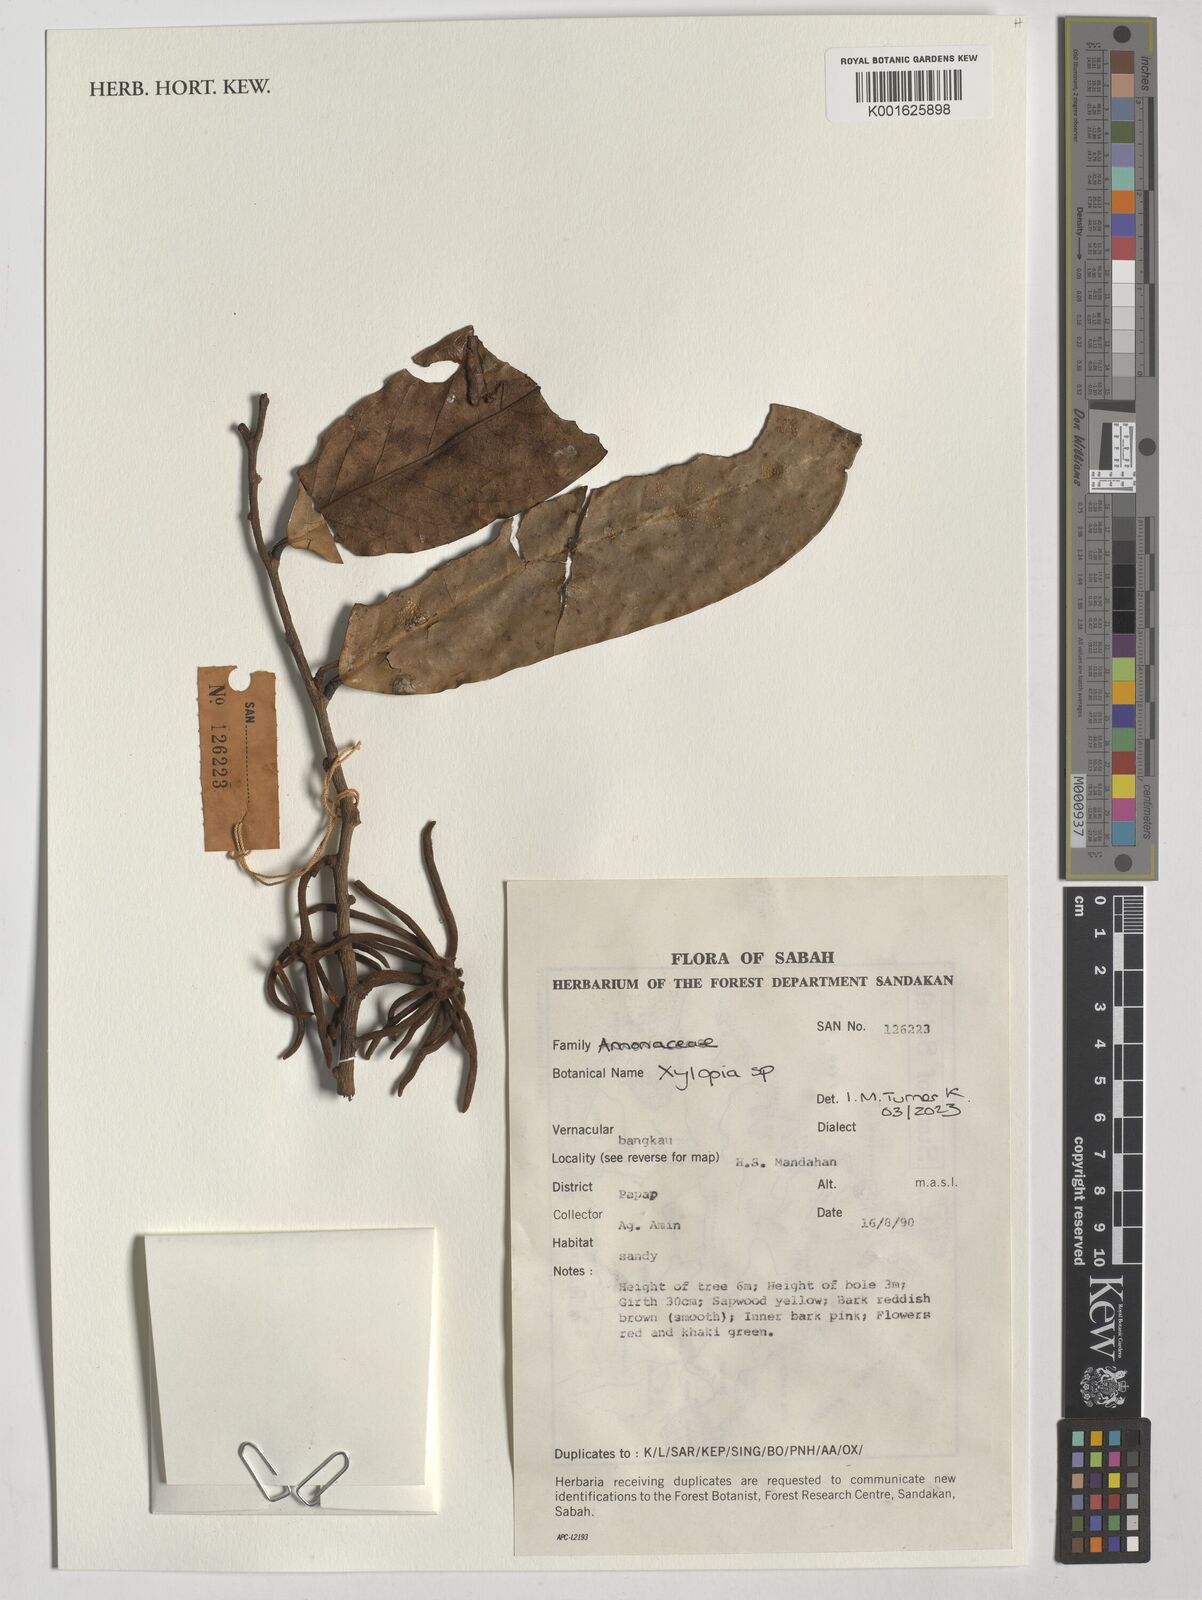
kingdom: Plantae
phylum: Tracheophyta
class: Magnoliopsida
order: Magnoliales
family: Annonaceae
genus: Xylopia
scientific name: Xylopia
